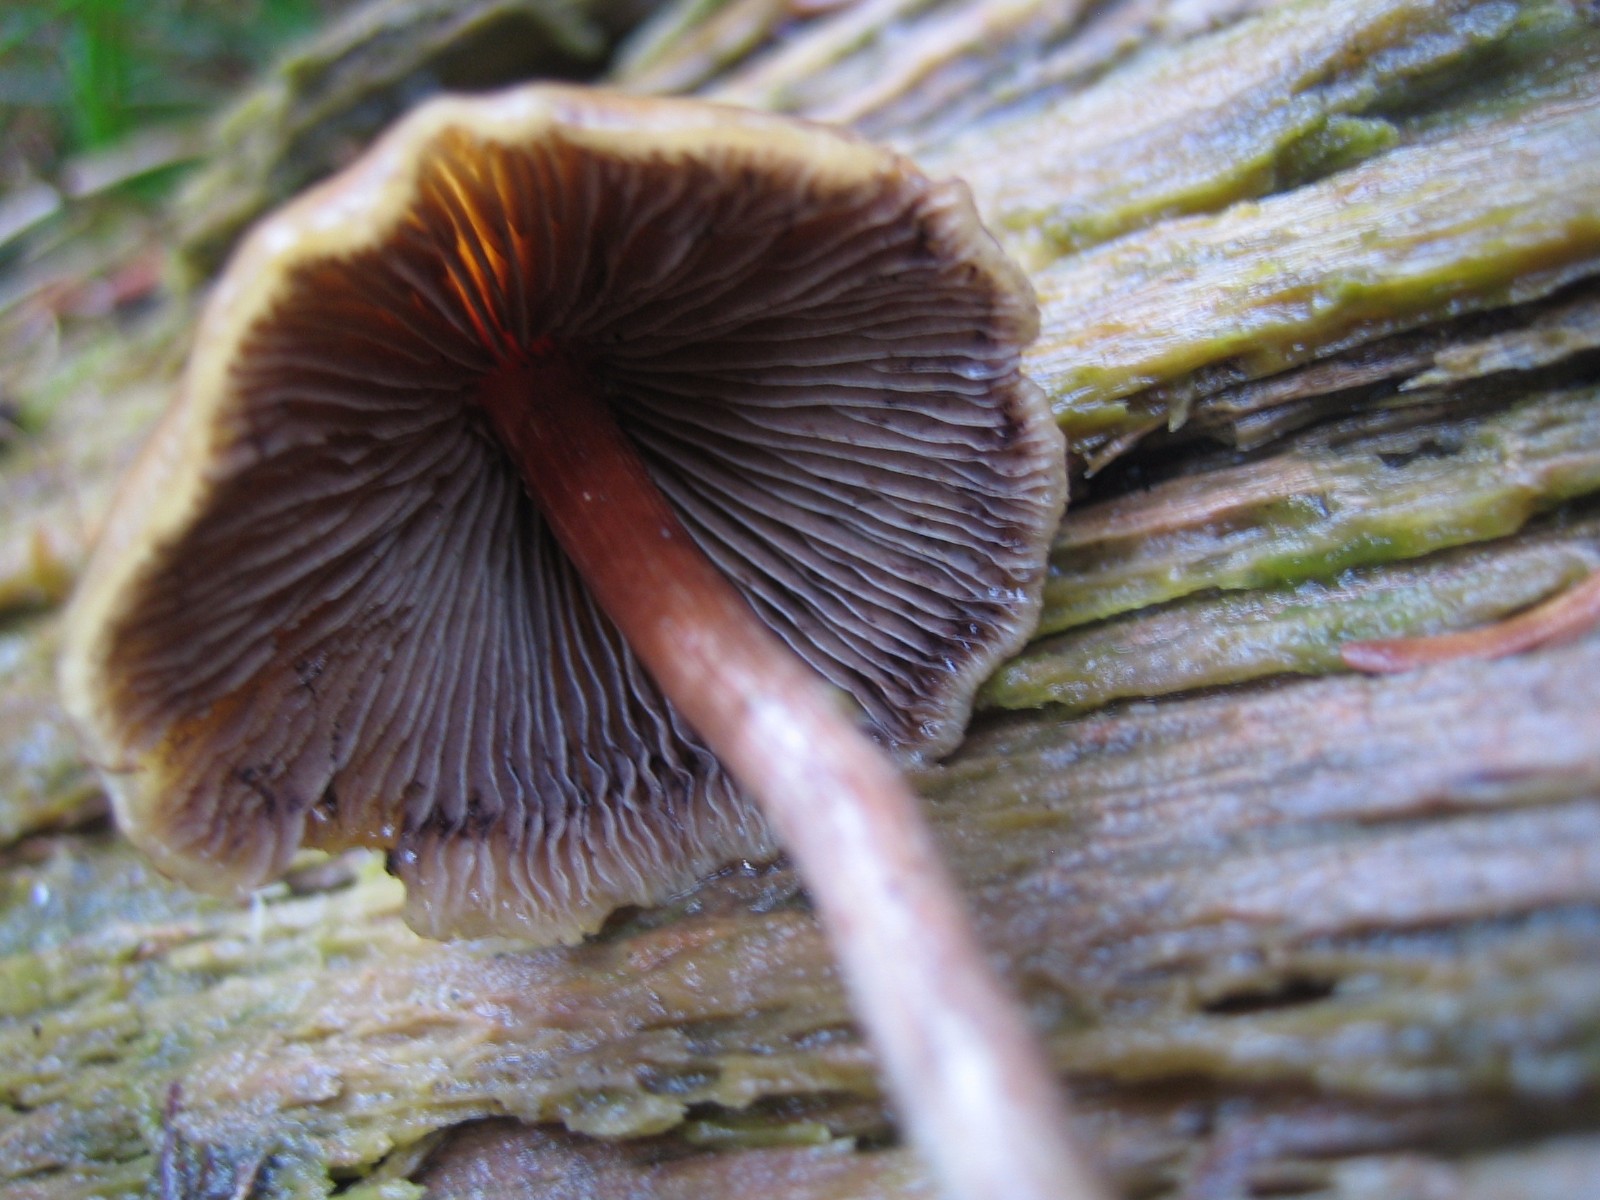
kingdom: Fungi
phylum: Basidiomycota
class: Agaricomycetes
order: Agaricales
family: Strophariaceae
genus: Hypholoma
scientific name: Hypholoma marginatum
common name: enlig svovlhat
